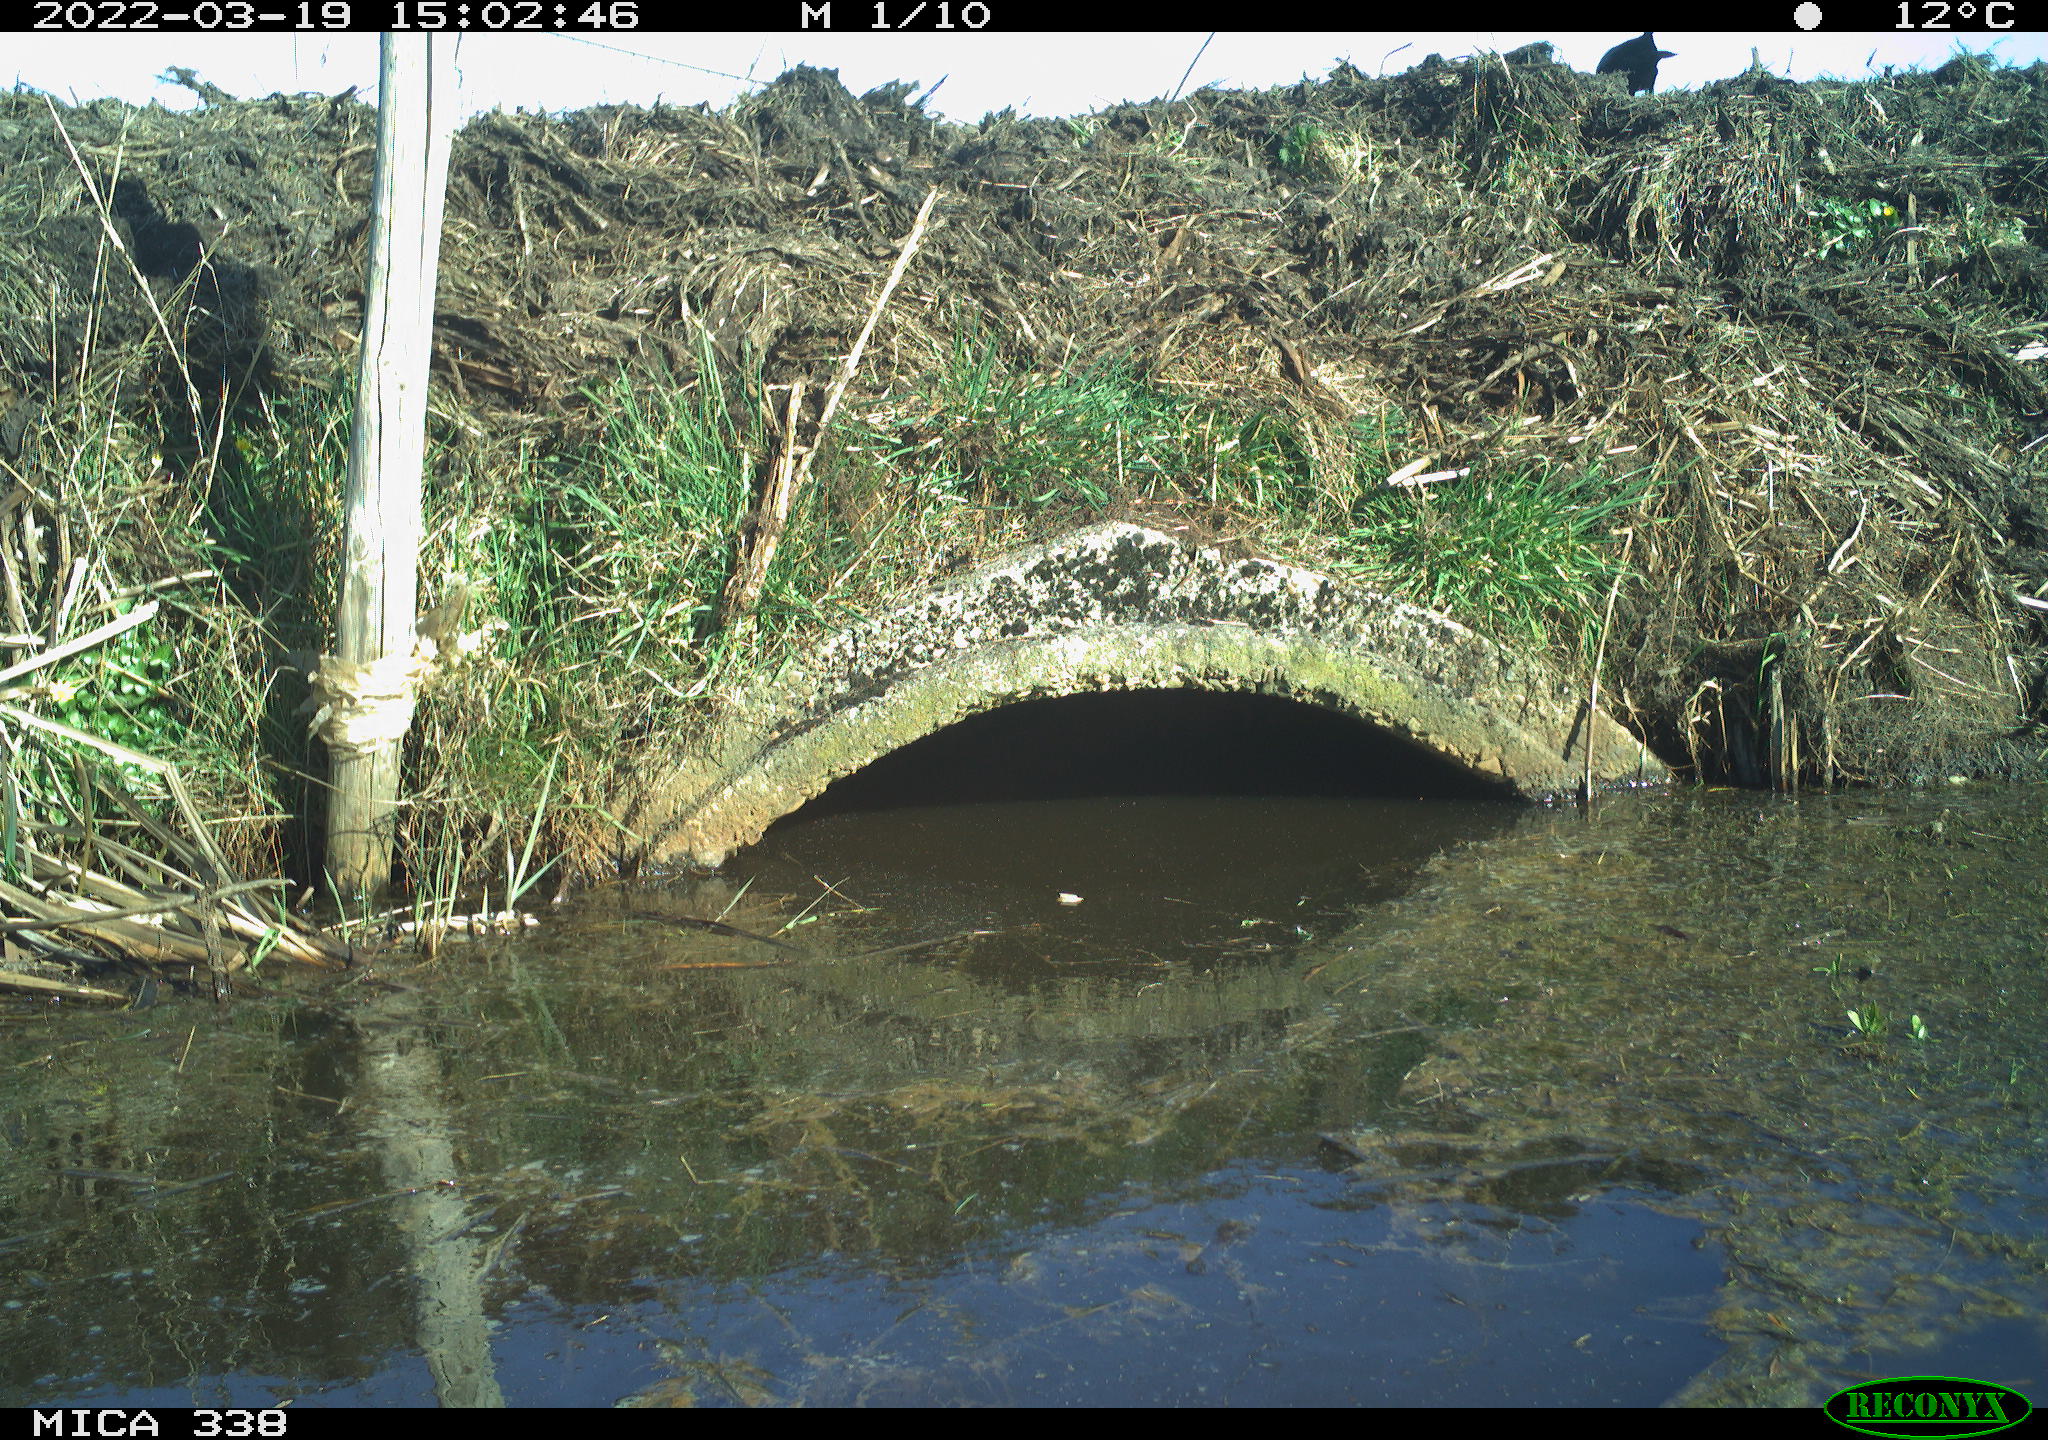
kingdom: Animalia
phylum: Chordata
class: Aves
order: Passeriformes
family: Corvidae
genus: Corvus
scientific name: Corvus corone
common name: Carrion crow
